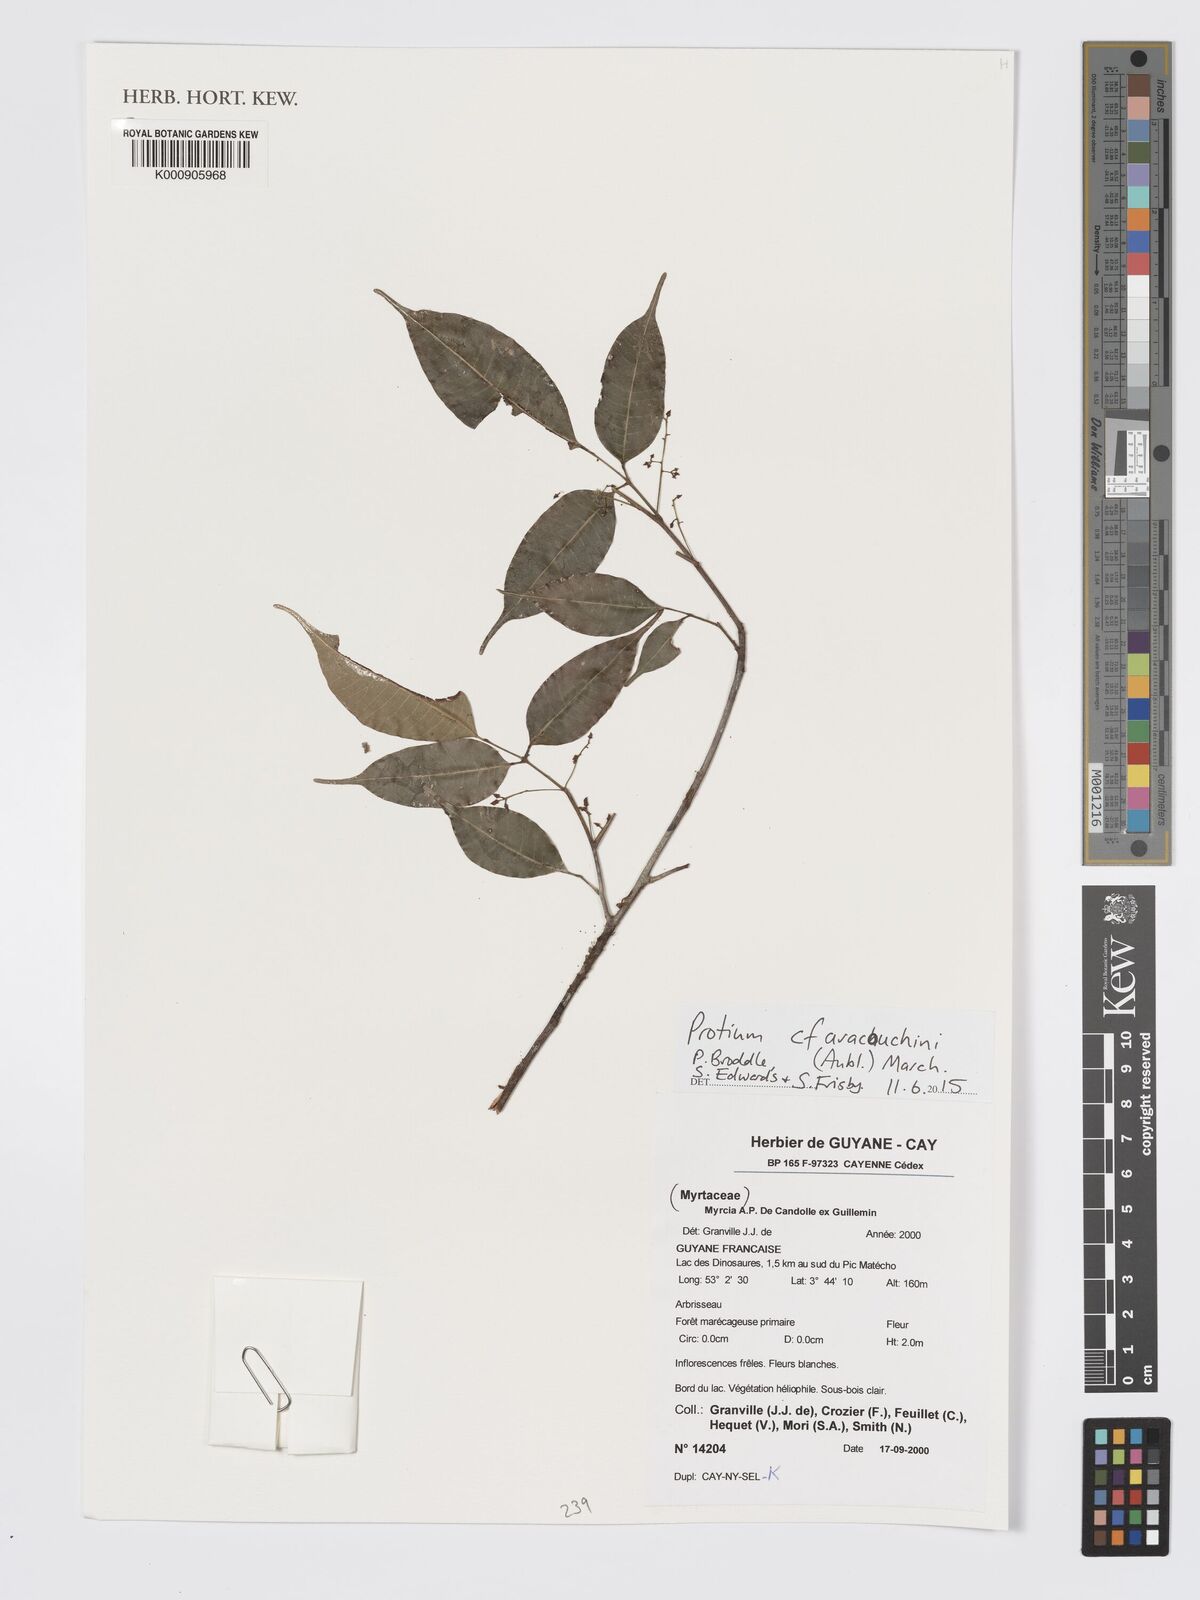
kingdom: Plantae
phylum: Tracheophyta
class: Magnoliopsida
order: Sapindales
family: Burseraceae
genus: Protium
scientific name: Protium aracouchini
